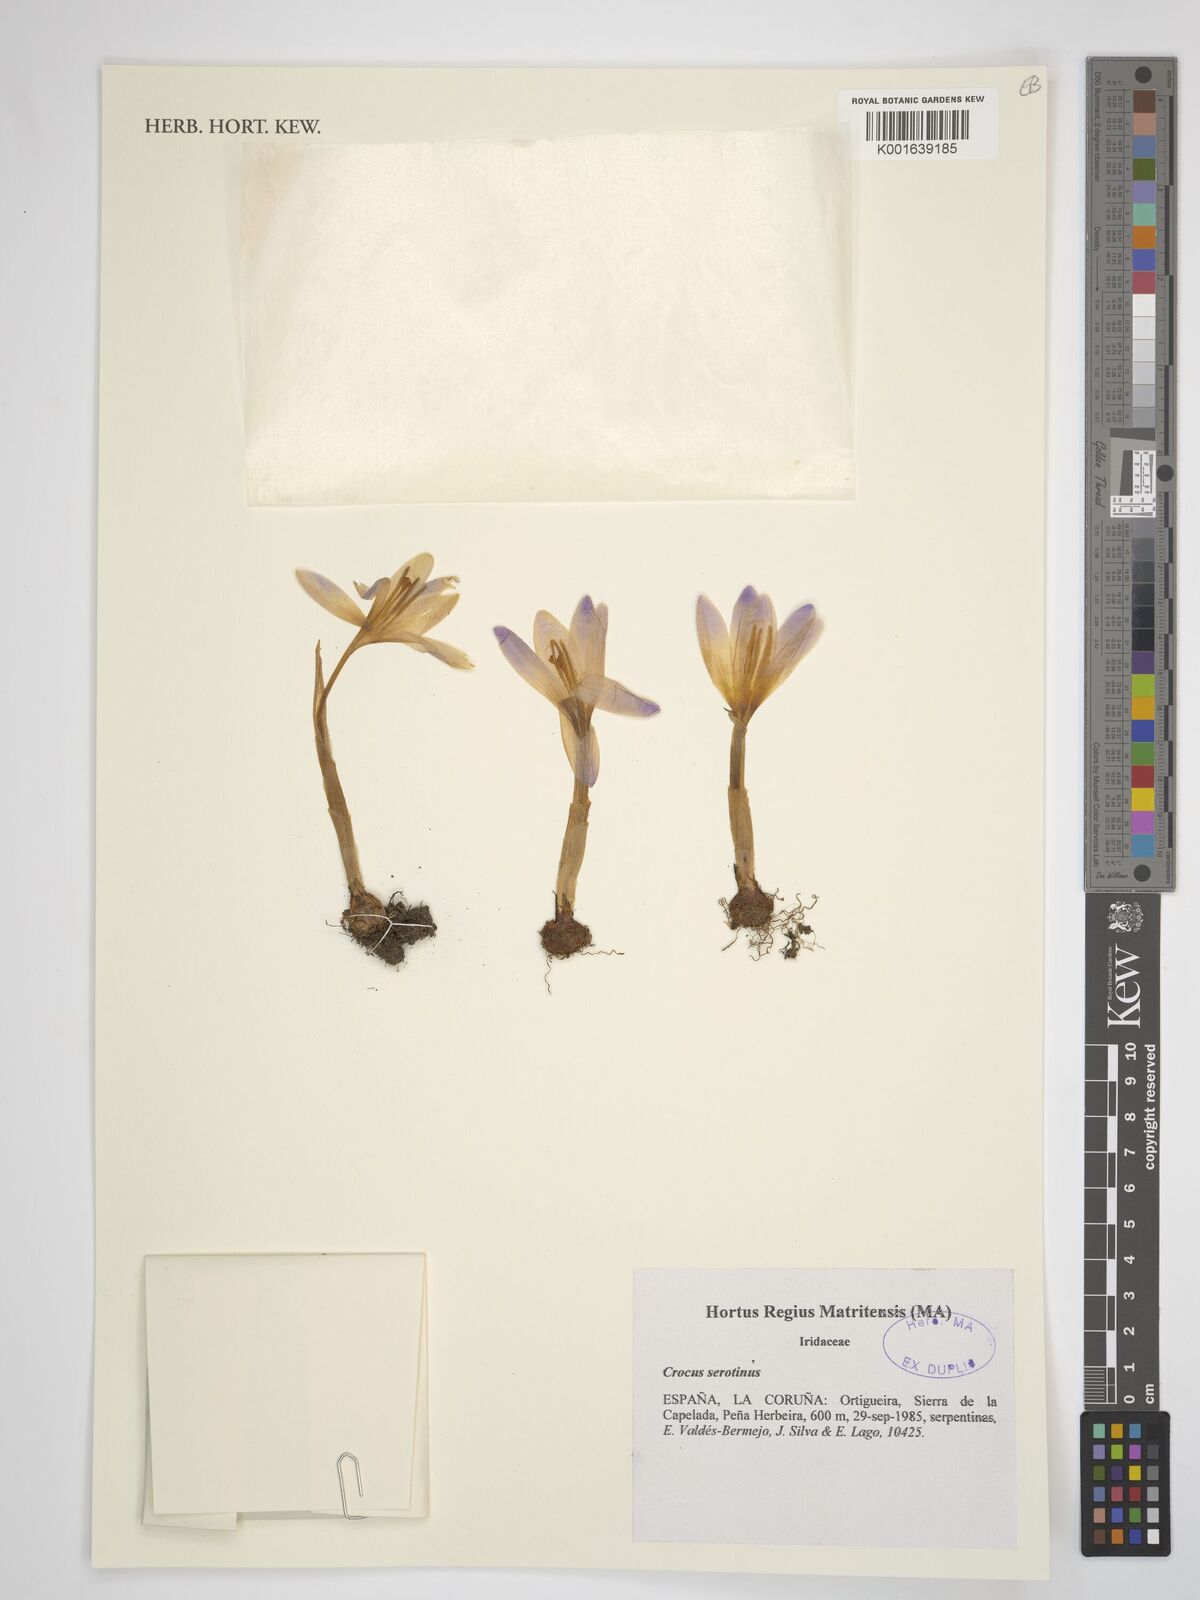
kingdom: Plantae
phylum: Tracheophyta
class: Liliopsida
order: Asparagales
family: Iridaceae
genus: Crocus
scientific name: Crocus autumnalis
